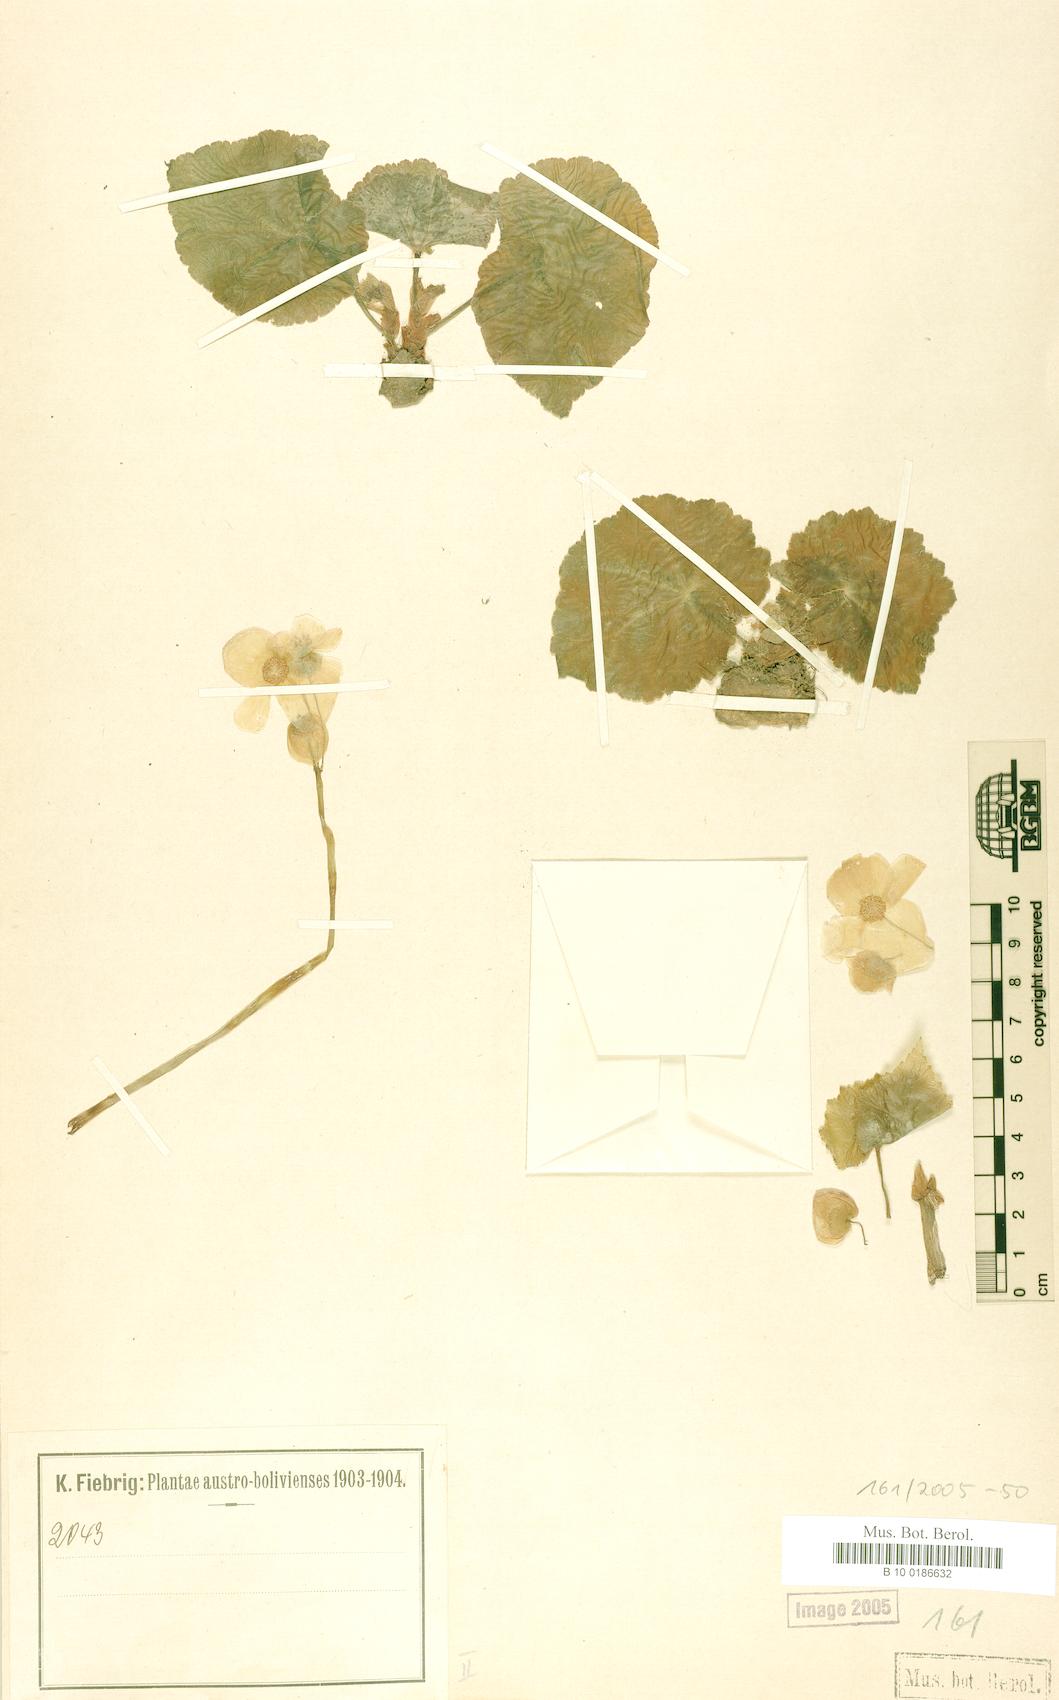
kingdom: Plantae
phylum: Tracheophyta
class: Magnoliopsida
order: Cucurbitales
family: Begoniaceae
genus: Begonia
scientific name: Begonia micranthera
